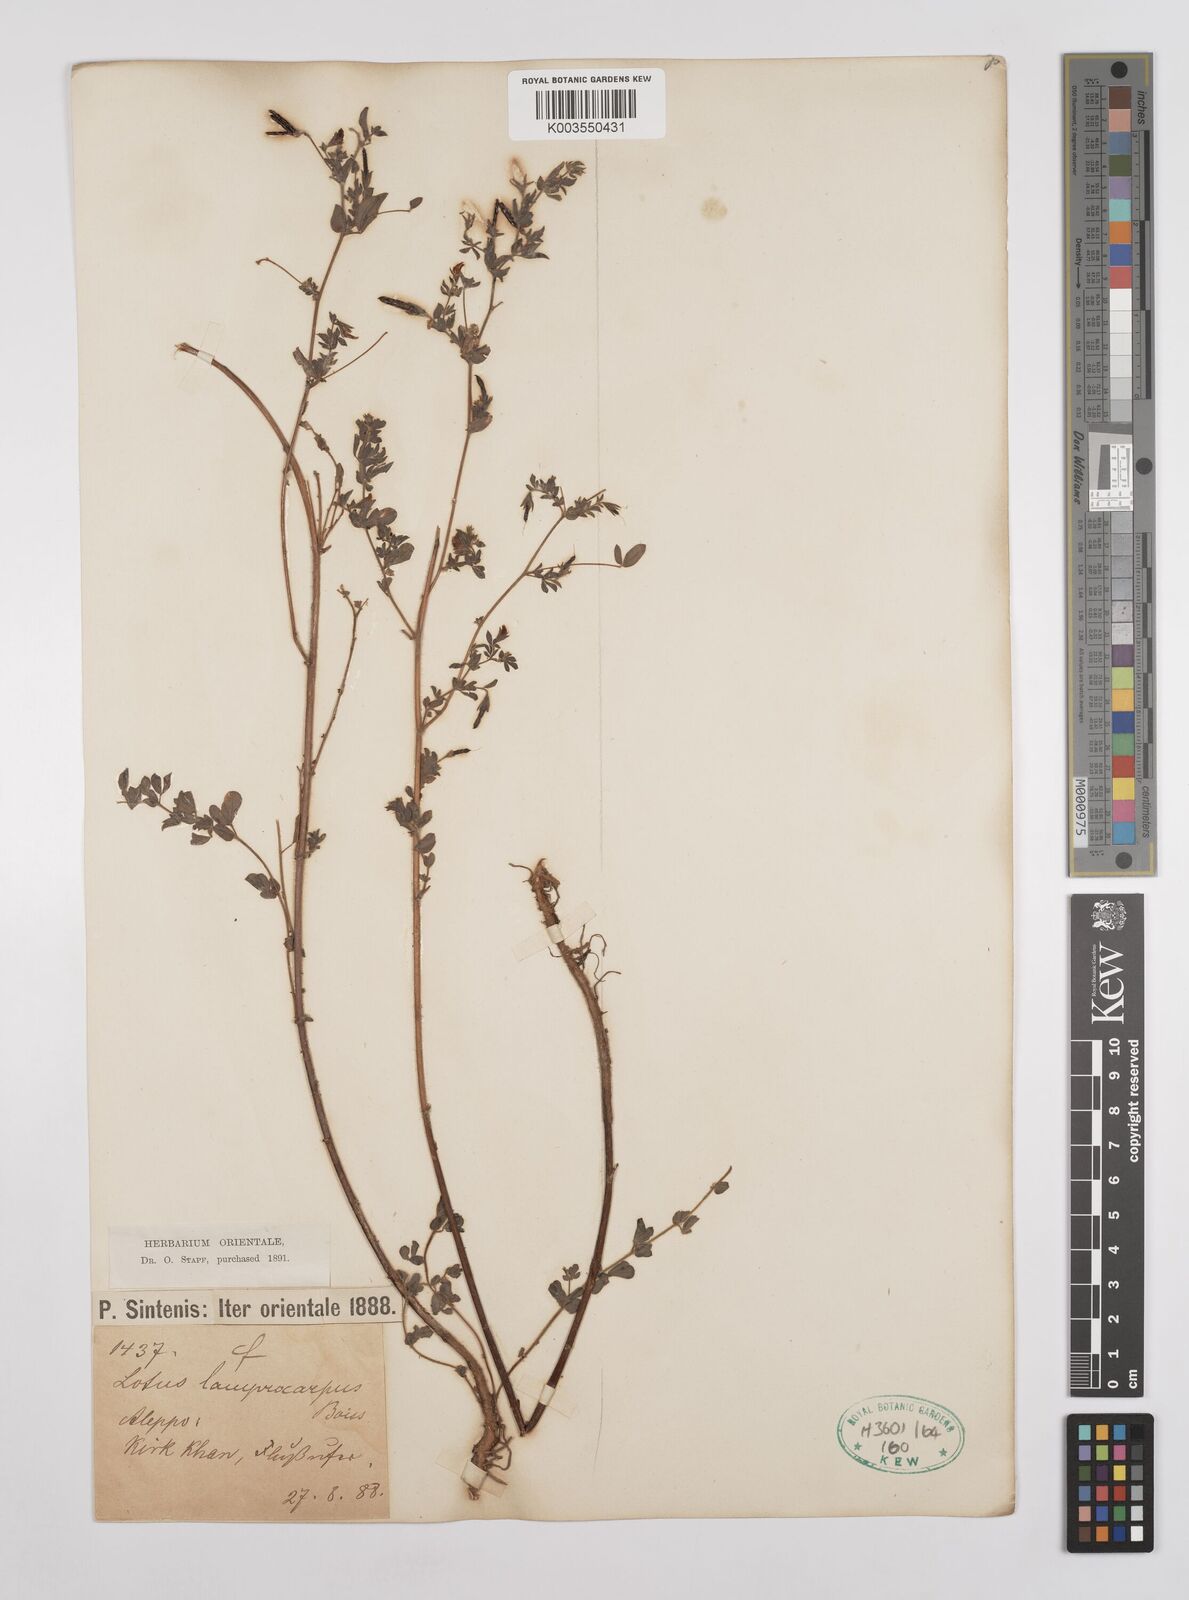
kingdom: Plantae
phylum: Tracheophyta
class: Magnoliopsida
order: Fabales
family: Fabaceae
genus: Lotus
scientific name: Lotus palustris
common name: Large birds-foot trefoil
